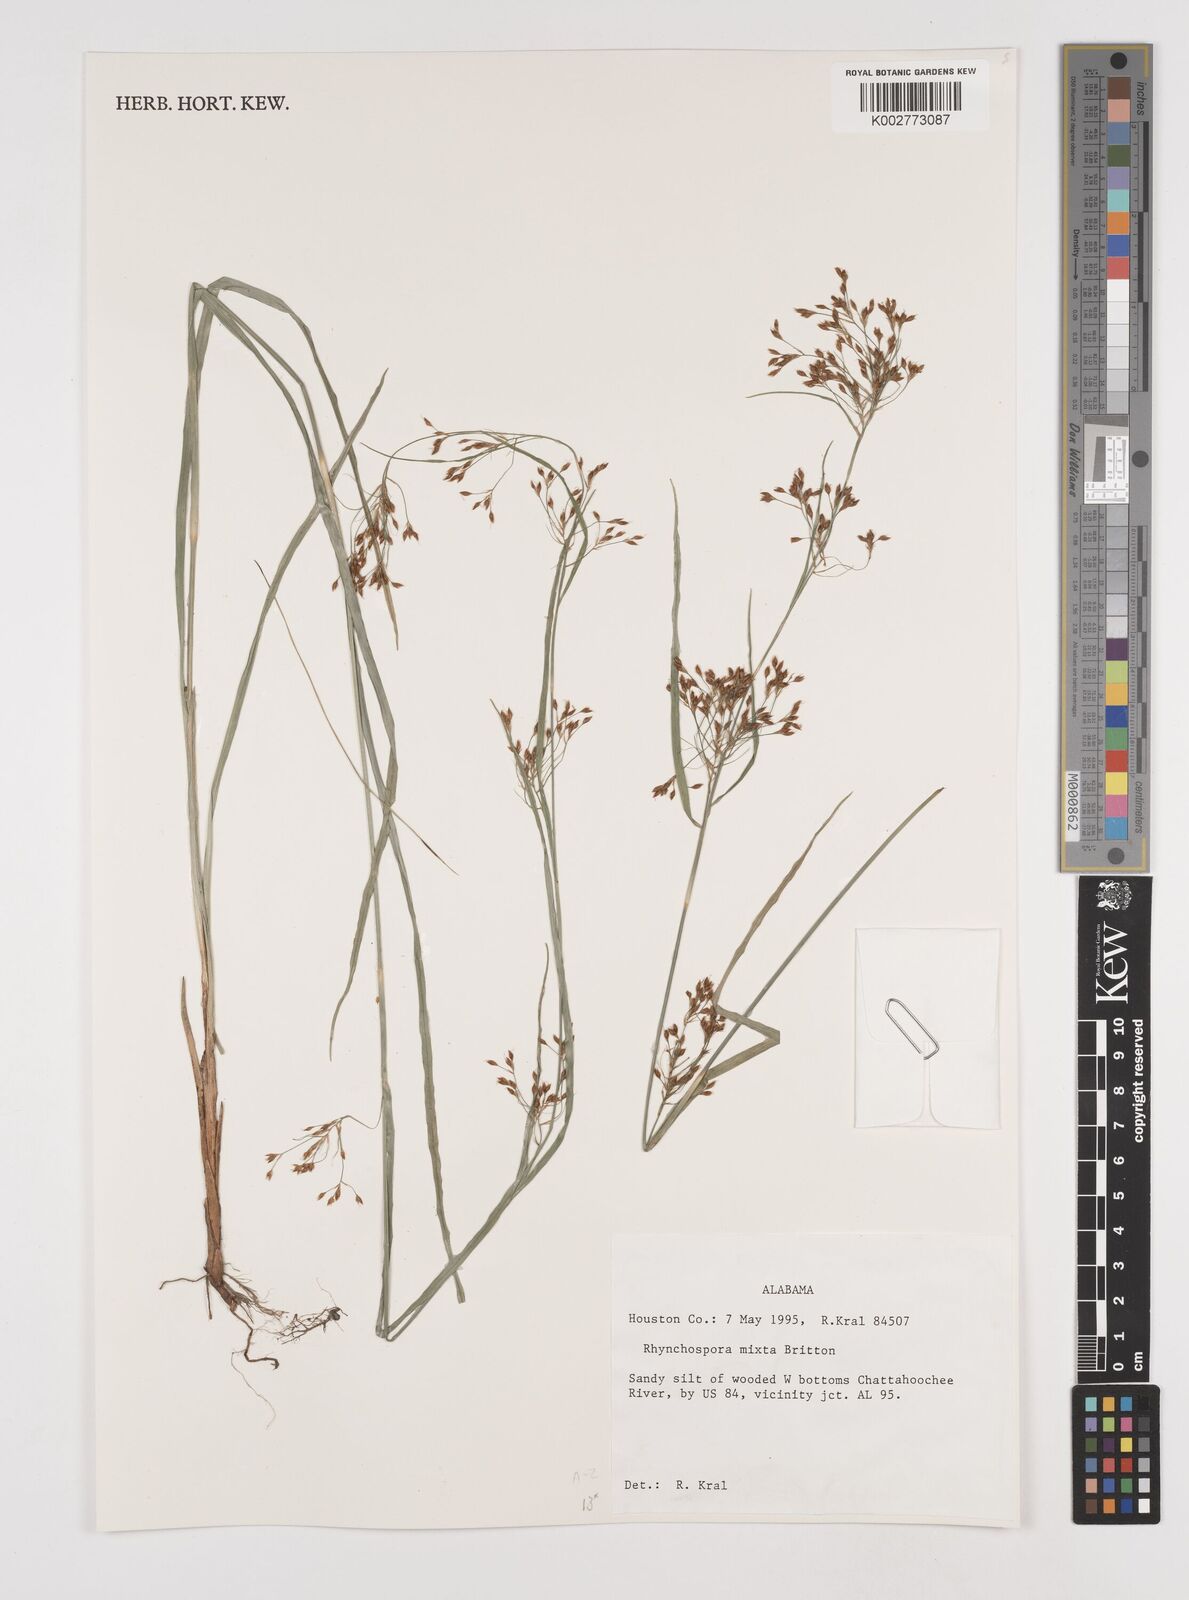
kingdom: Plantae
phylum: Tracheophyta
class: Liliopsida
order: Poales
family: Cyperaceae
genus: Rhynchospora
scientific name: Rhynchospora mixta
